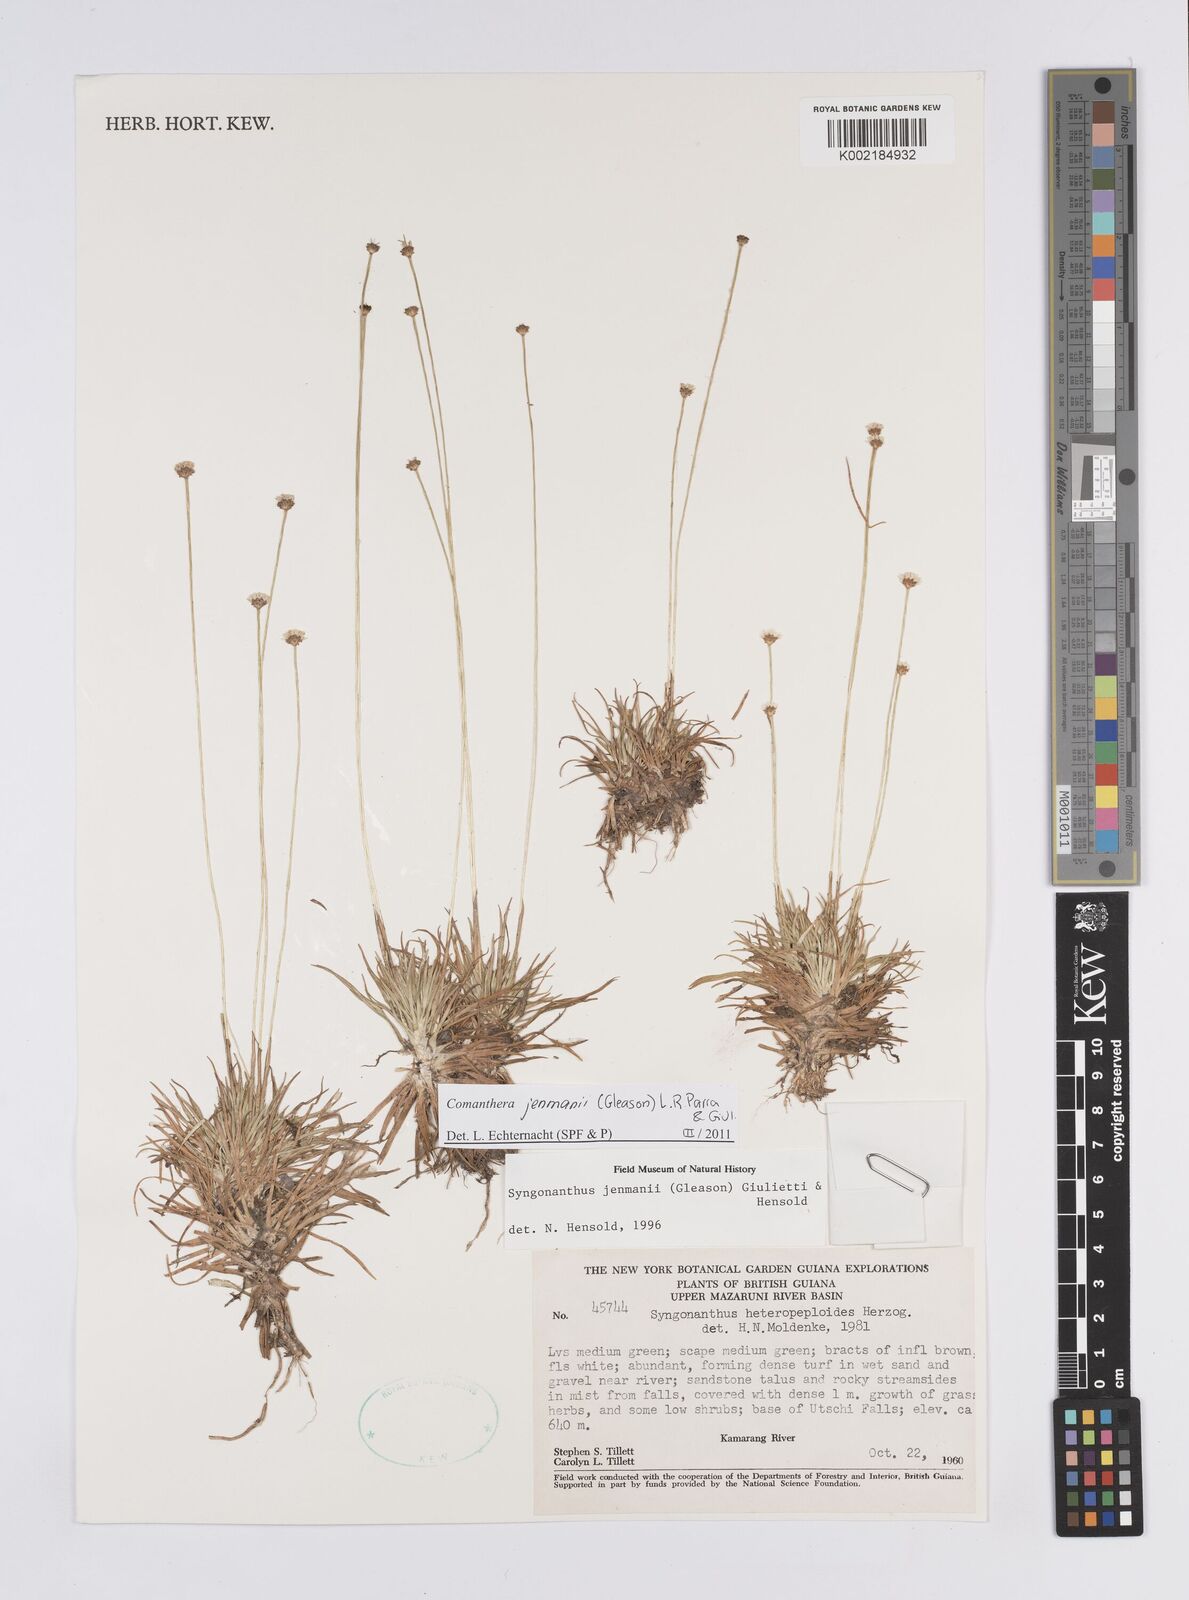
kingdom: Plantae
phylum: Tracheophyta
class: Liliopsida
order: Poales
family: Eriocaulaceae
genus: Comanthera
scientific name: Comanthera jenmanii
